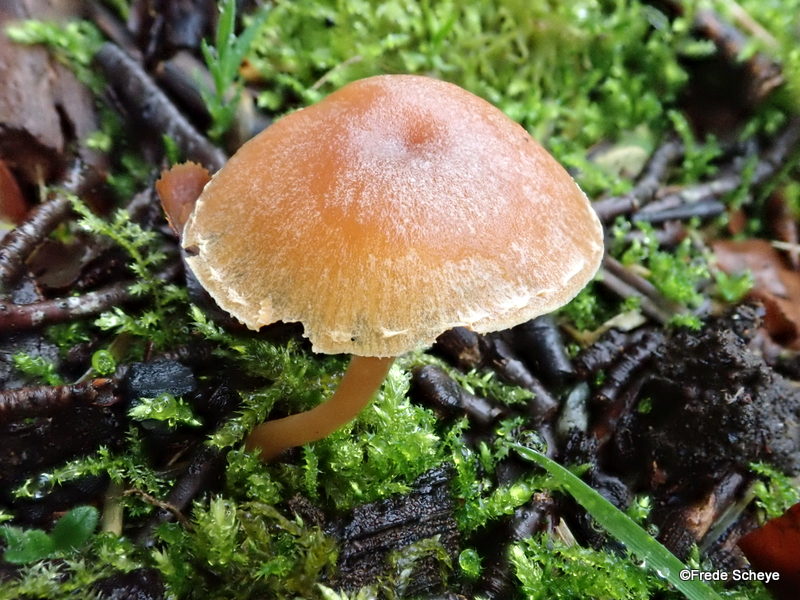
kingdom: Fungi
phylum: Basidiomycota
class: Agaricomycetes
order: Agaricales
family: Tubariaceae
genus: Tubaria
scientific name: Tubaria furfuracea
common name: kliddet fnughat
